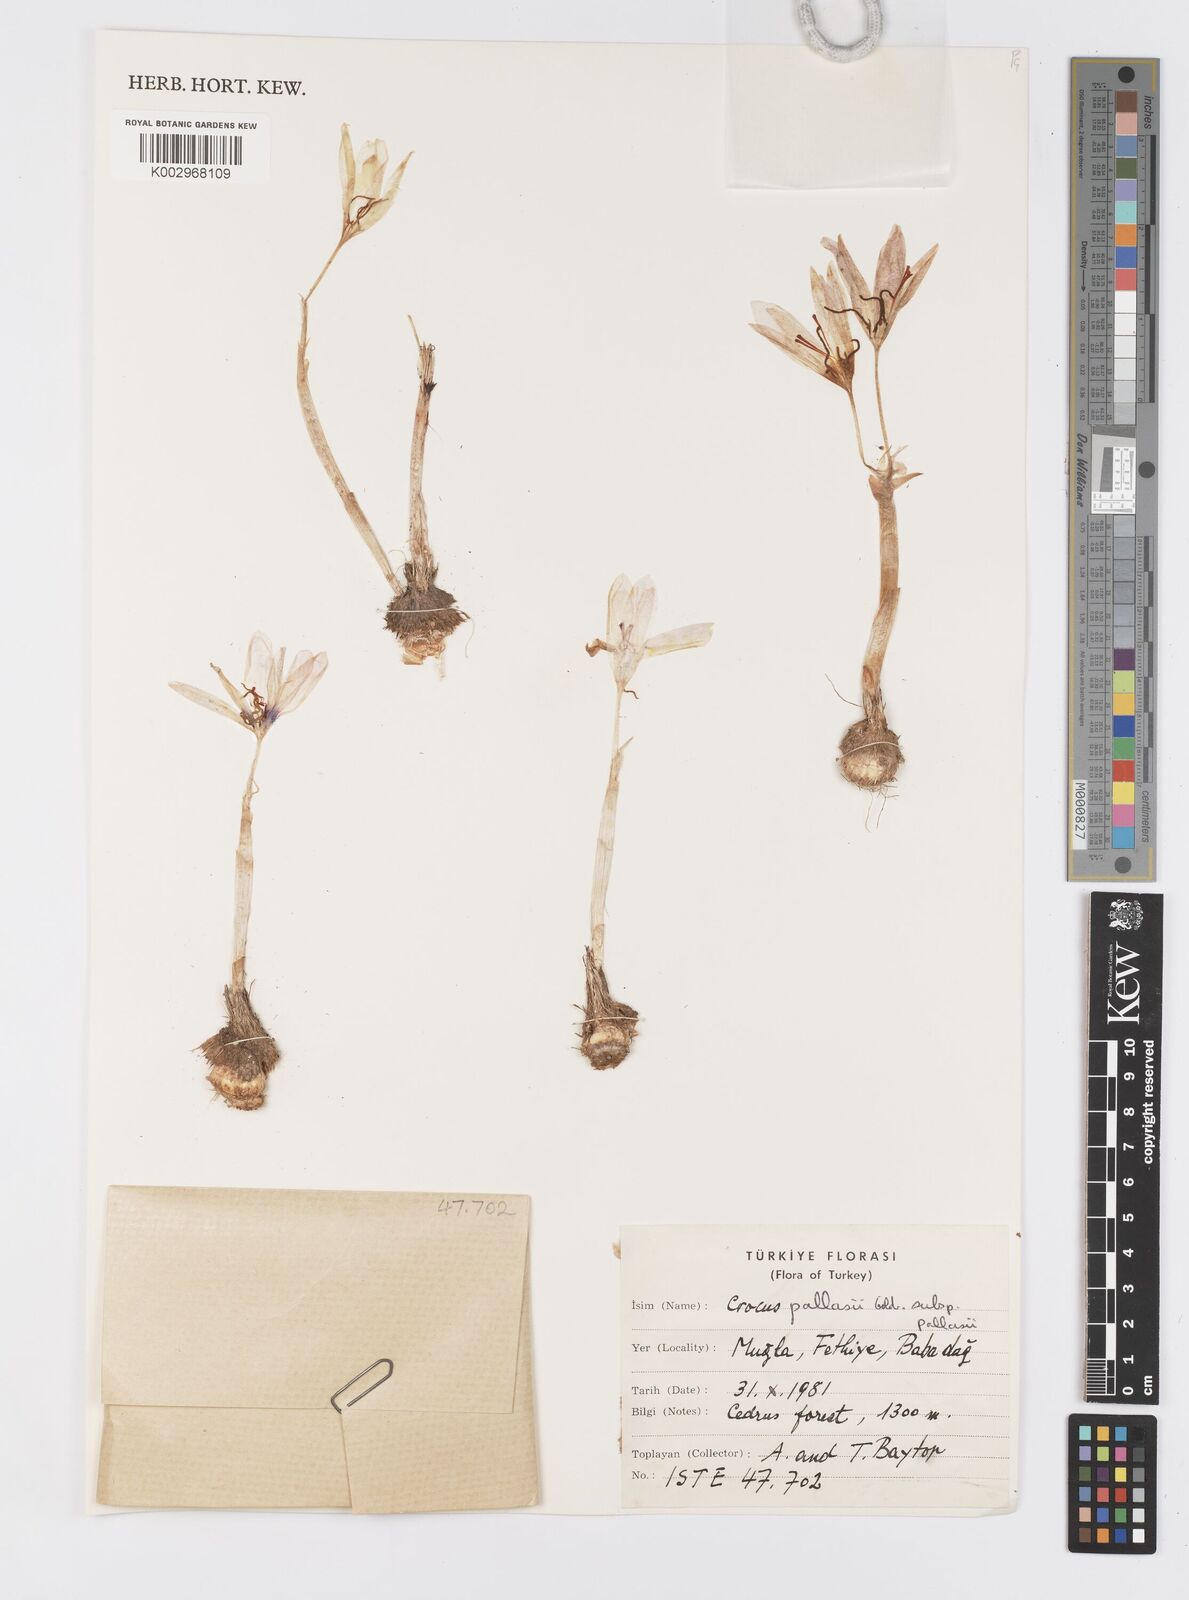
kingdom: Plantae
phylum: Tracheophyta
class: Liliopsida
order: Asparagales
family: Iridaceae
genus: Crocus
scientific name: Crocus
